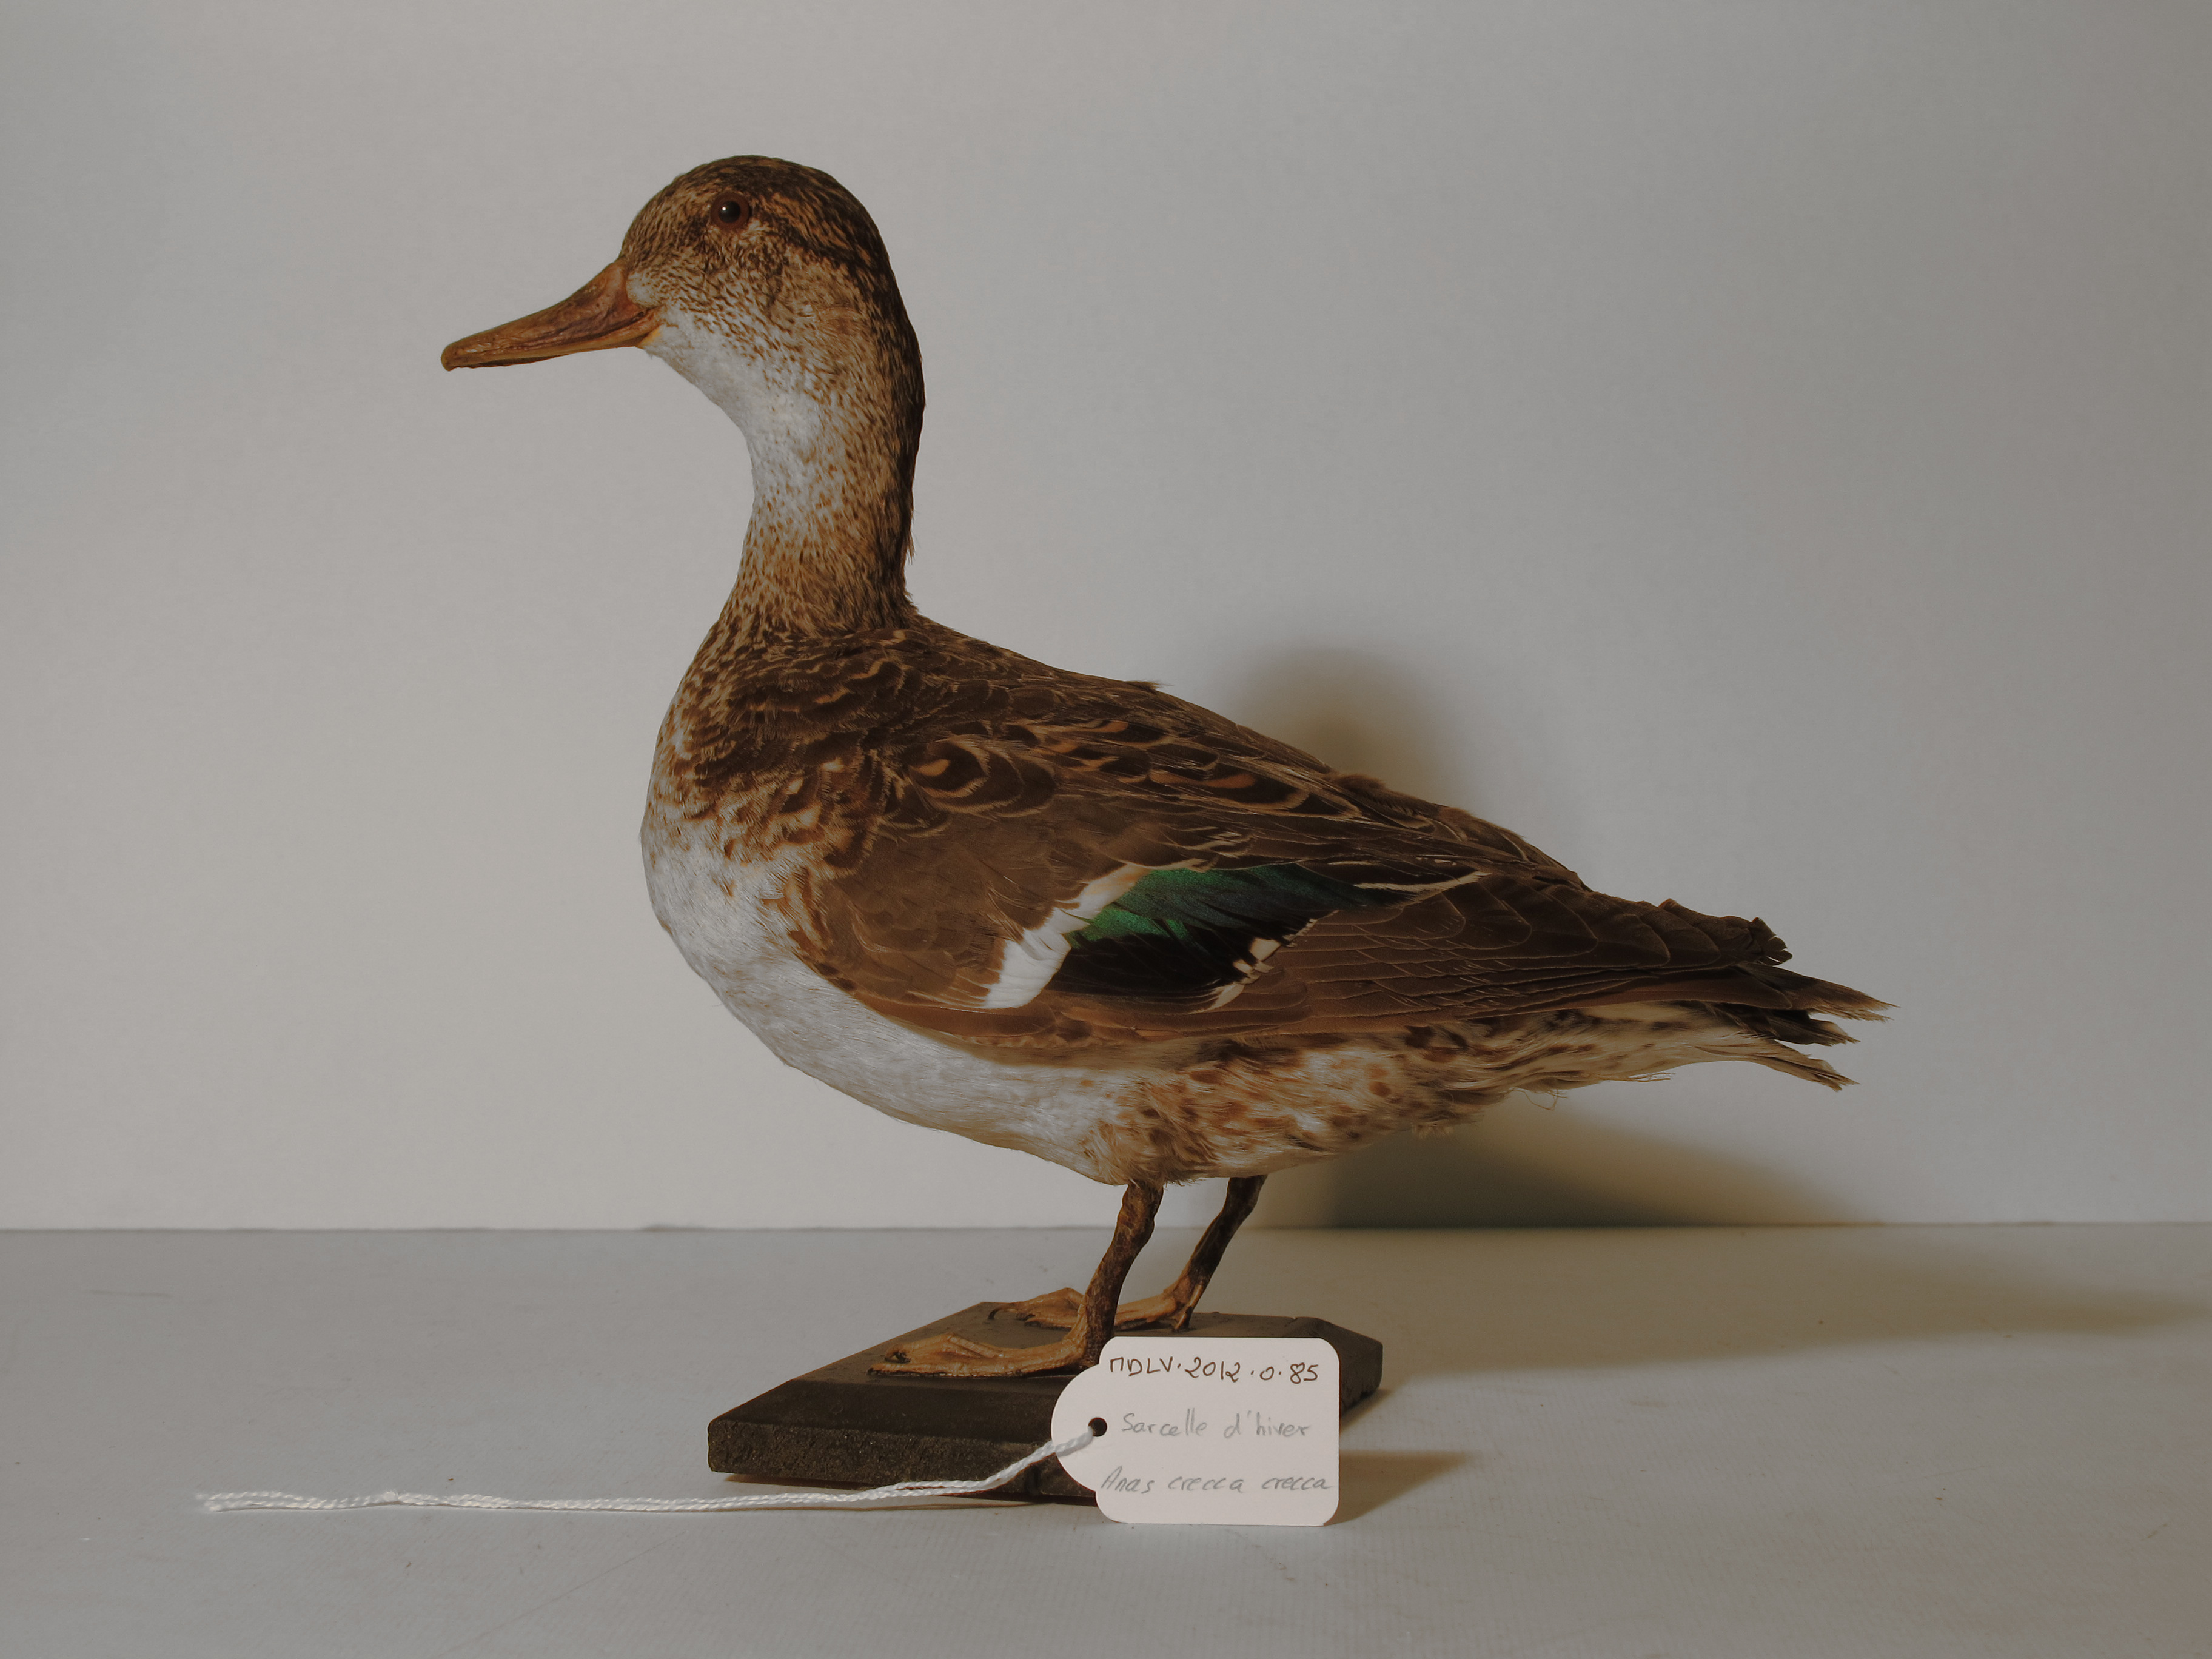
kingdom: Animalia
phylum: Chordata
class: Aves
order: Anseriformes
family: Anatidae
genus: Anas
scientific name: Anas crecca
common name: Common Teal
